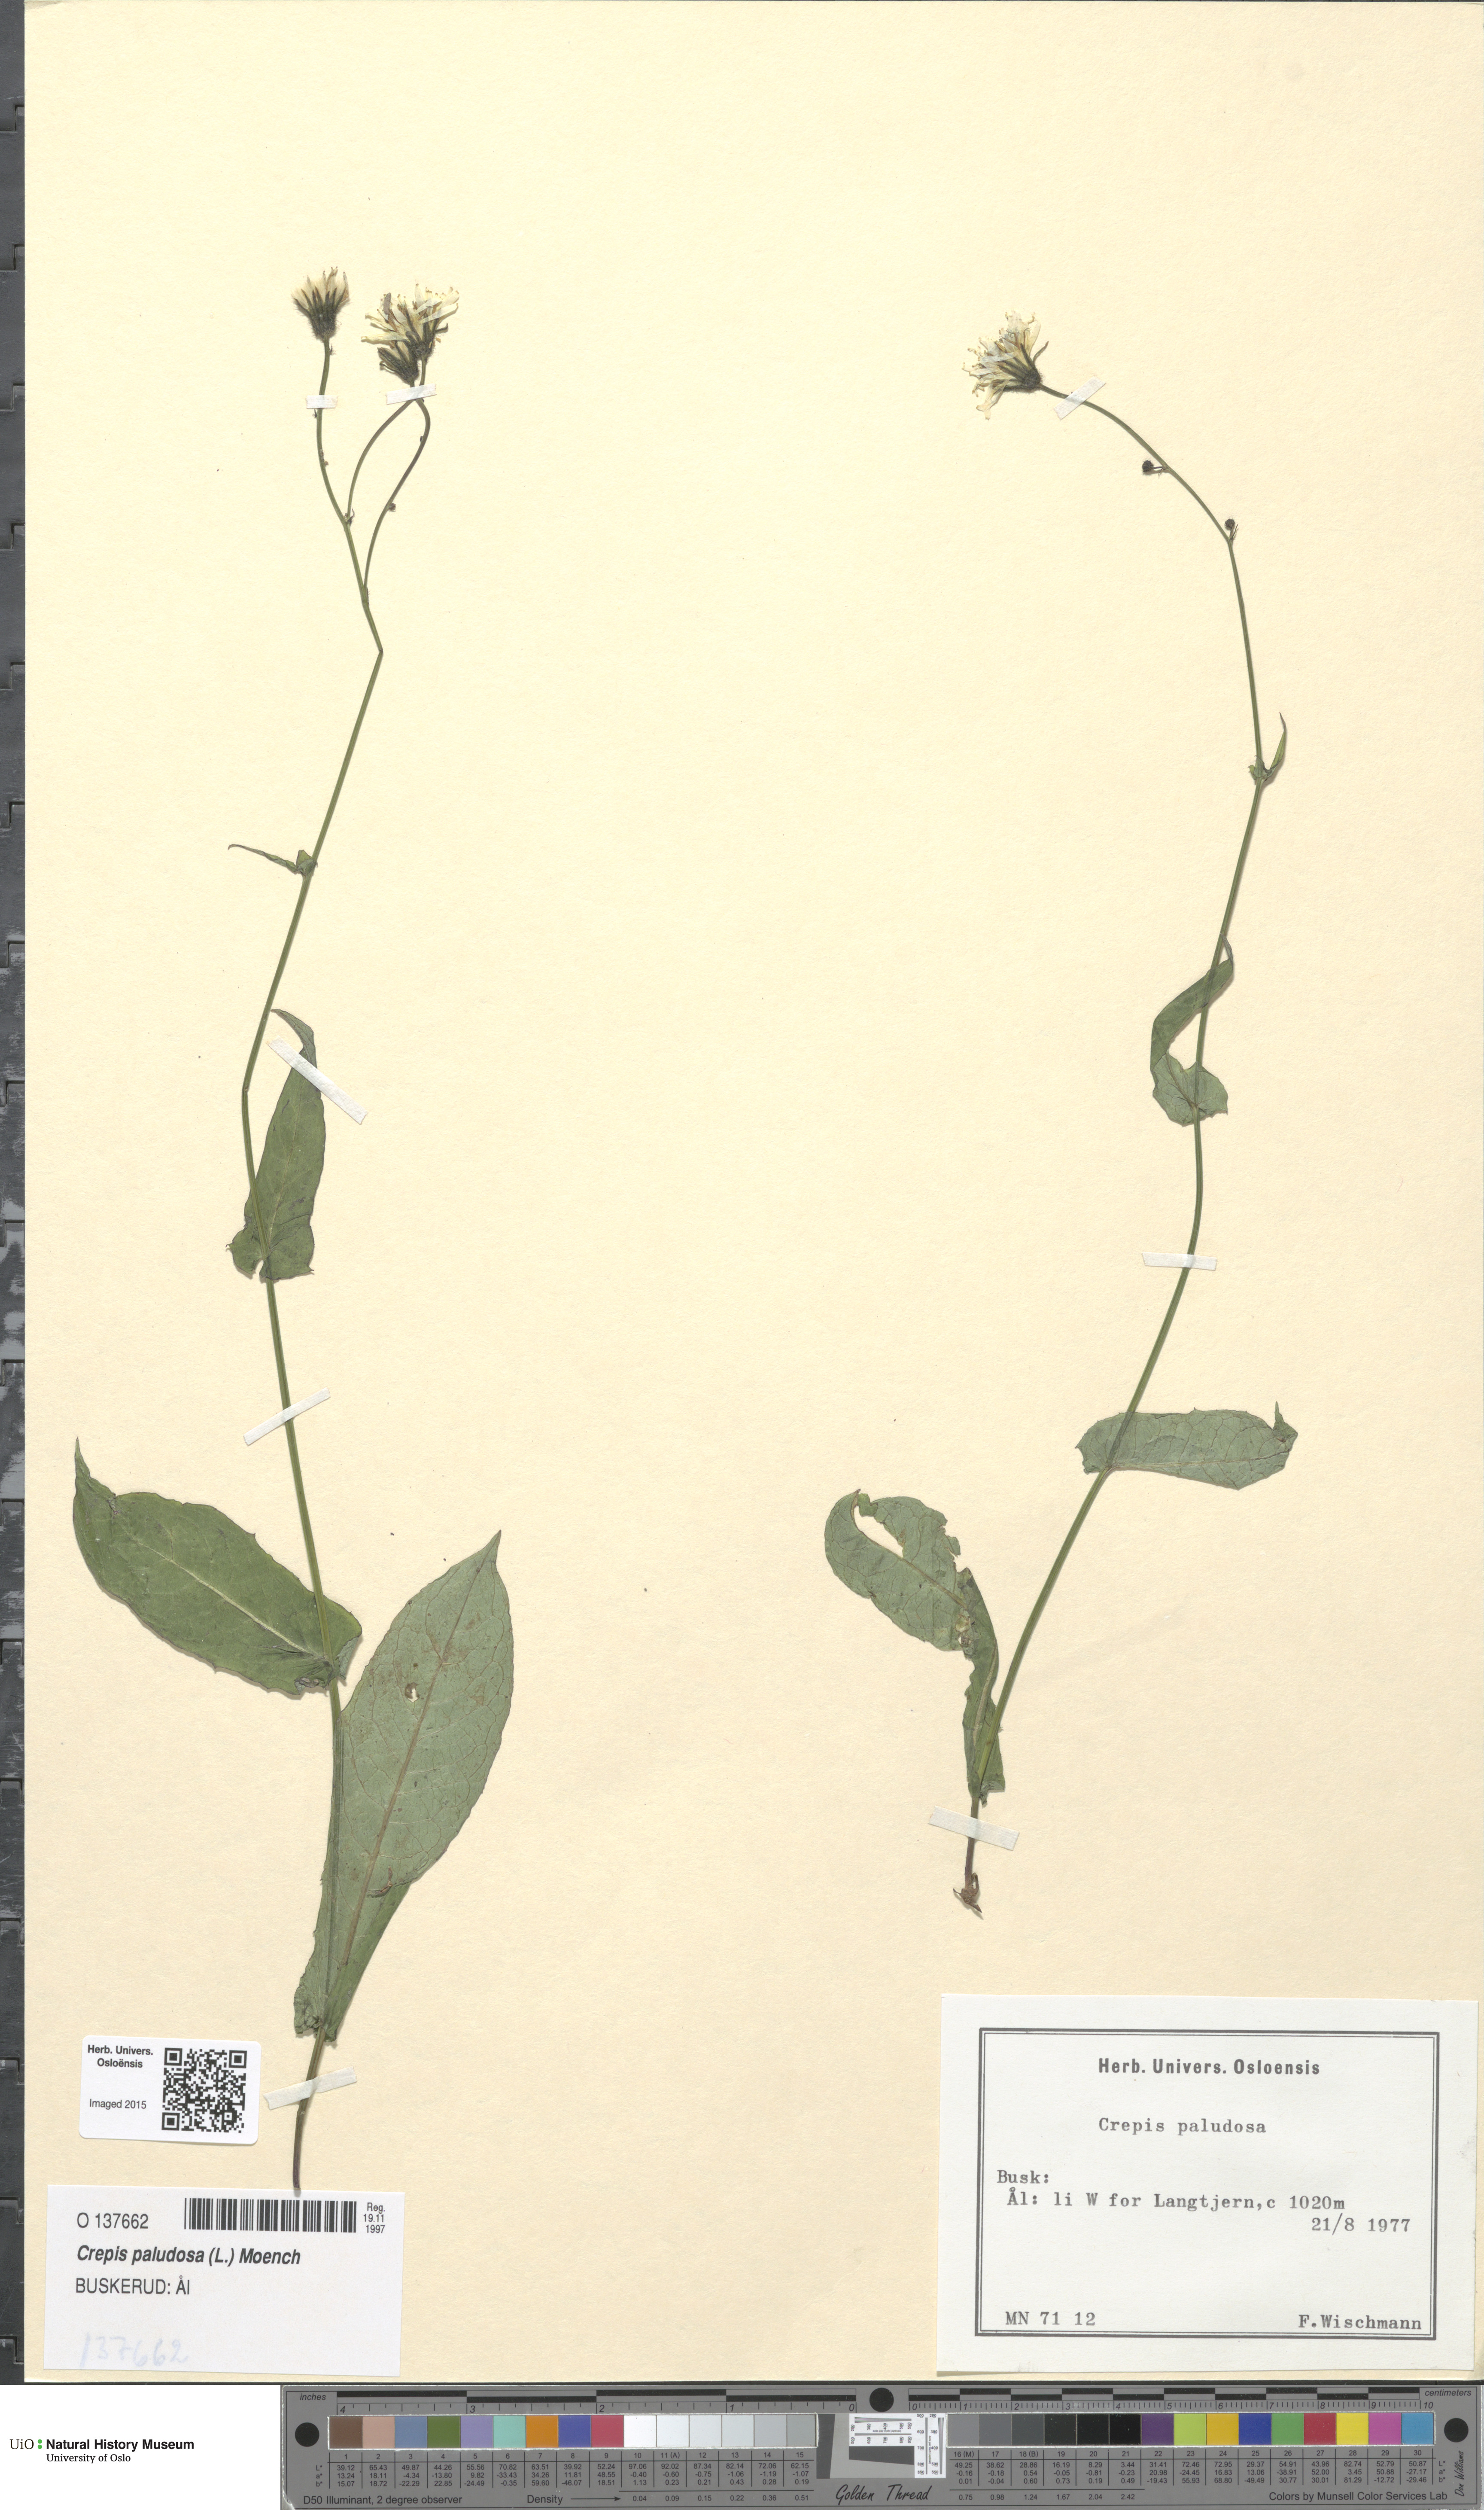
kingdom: Plantae
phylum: Tracheophyta
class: Magnoliopsida
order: Asterales
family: Asteraceae
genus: Crepis
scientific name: Crepis paludosa
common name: Marsh hawk's-beard
